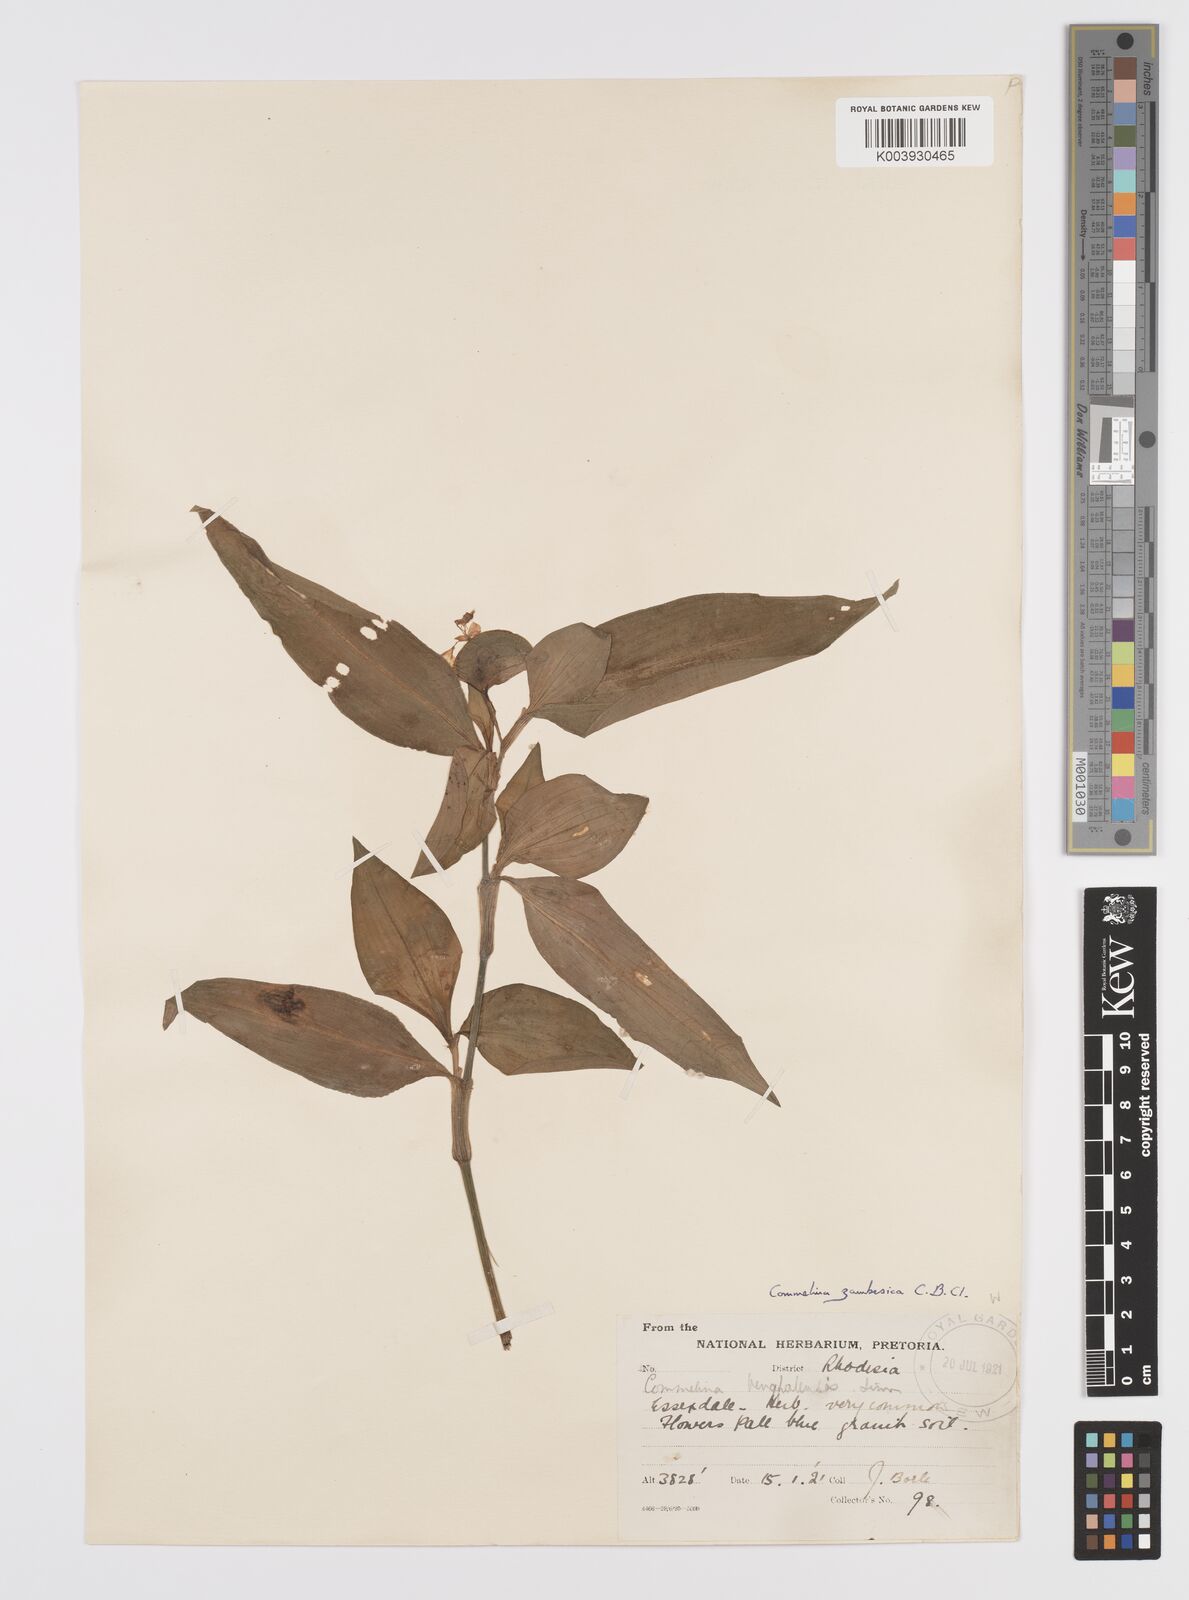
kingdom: Plantae
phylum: Tracheophyta
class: Liliopsida
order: Commelinales
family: Commelinaceae
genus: Commelina
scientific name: Commelina zambesica
